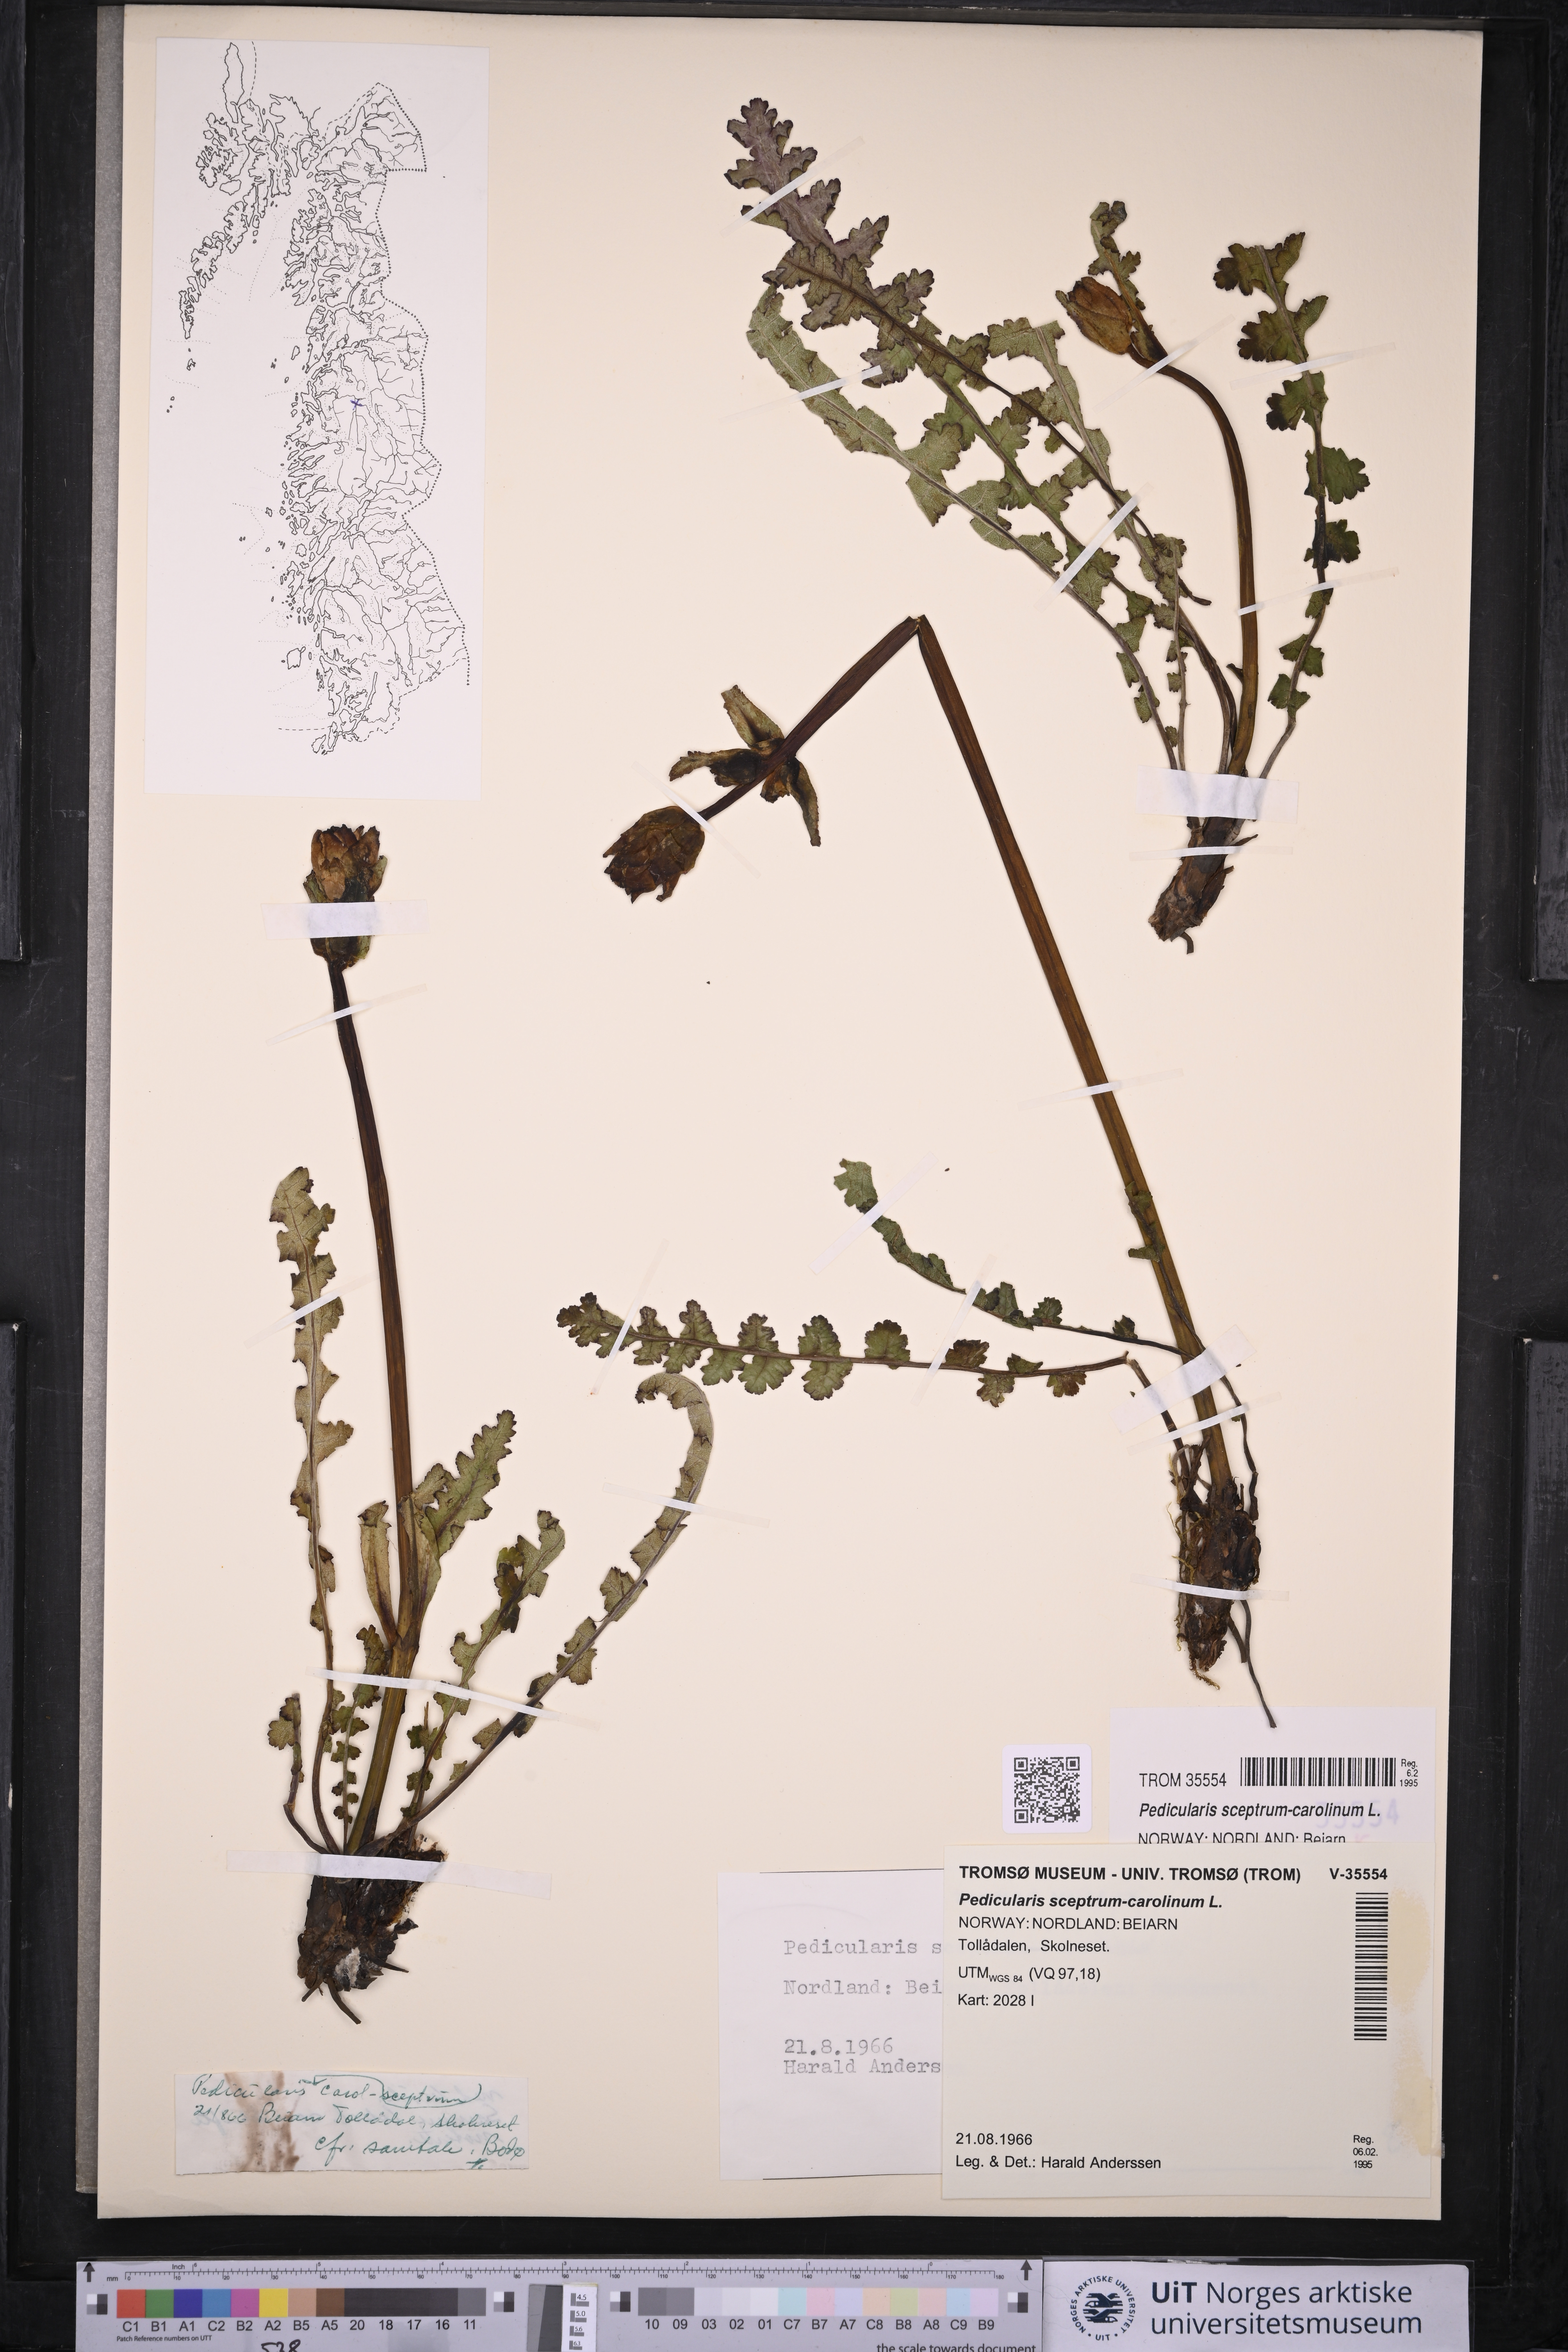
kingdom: Plantae
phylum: Tracheophyta
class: Magnoliopsida
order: Lamiales
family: Orobanchaceae
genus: Pedicularis
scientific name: Pedicularis sceptrum-carolinum
